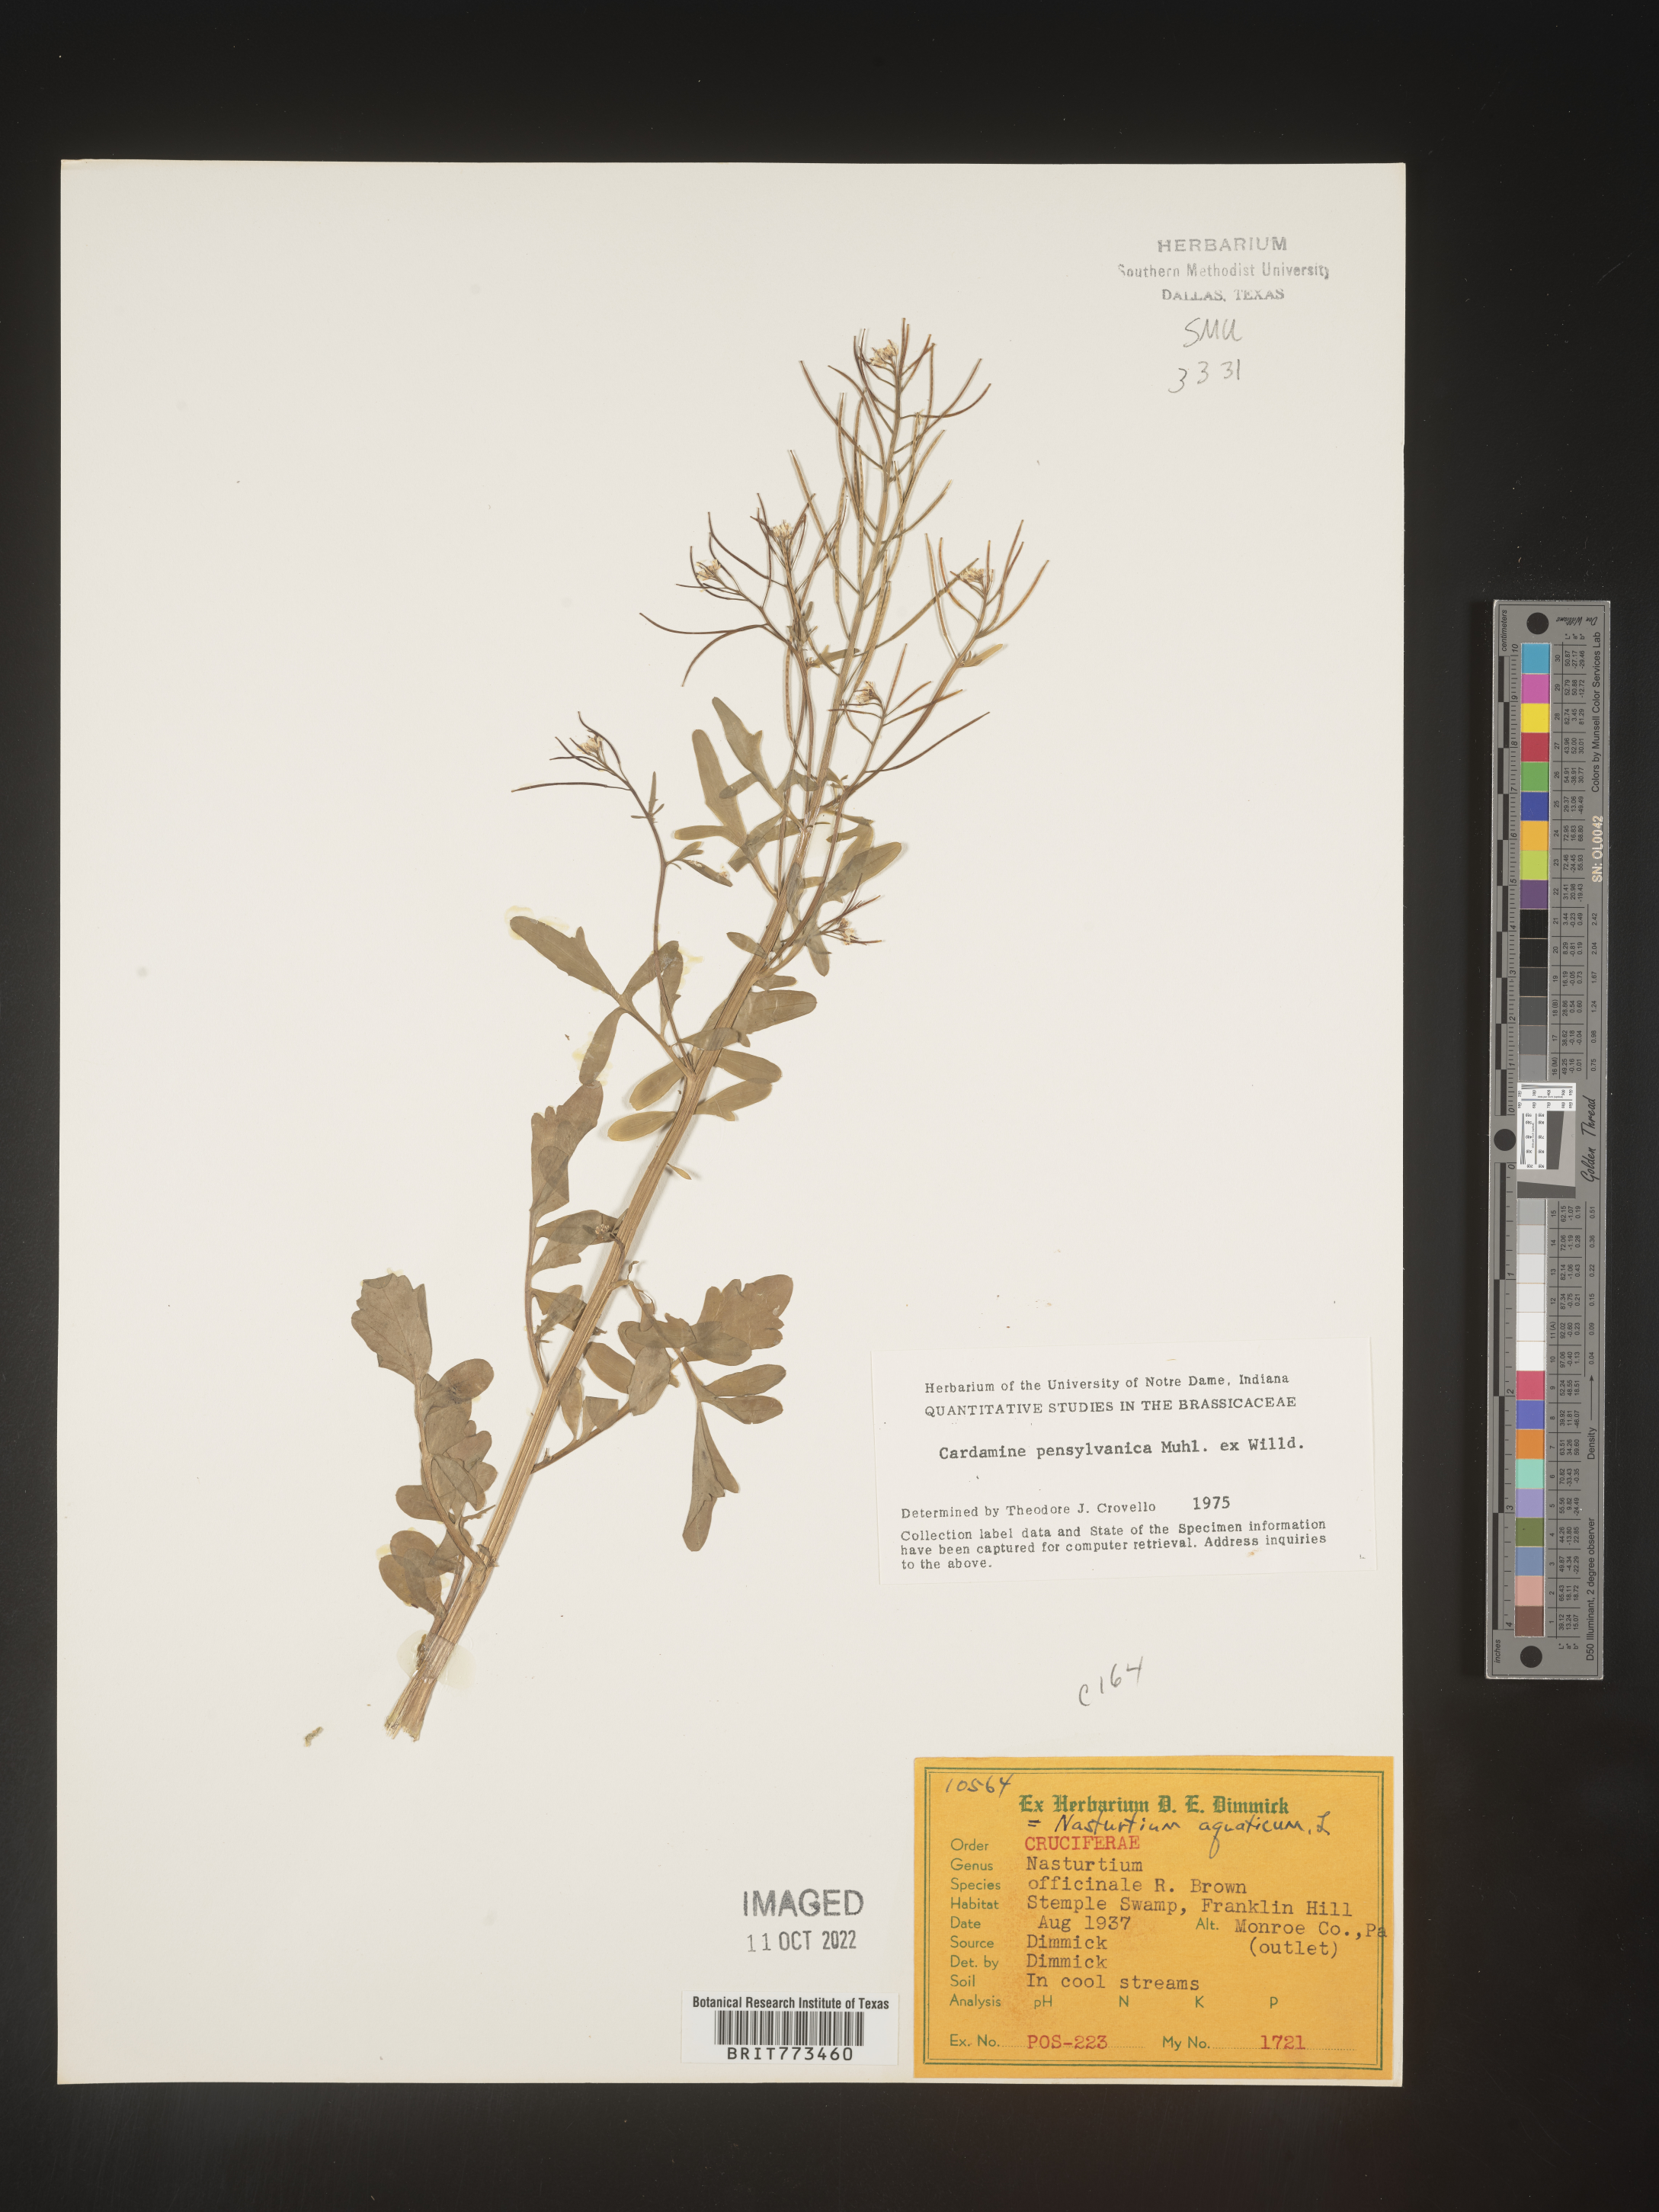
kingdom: Plantae
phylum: Tracheophyta
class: Magnoliopsida
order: Brassicales
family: Brassicaceae
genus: Cardamine
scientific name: Cardamine pensylvanica
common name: Pennsylvania bittercress
